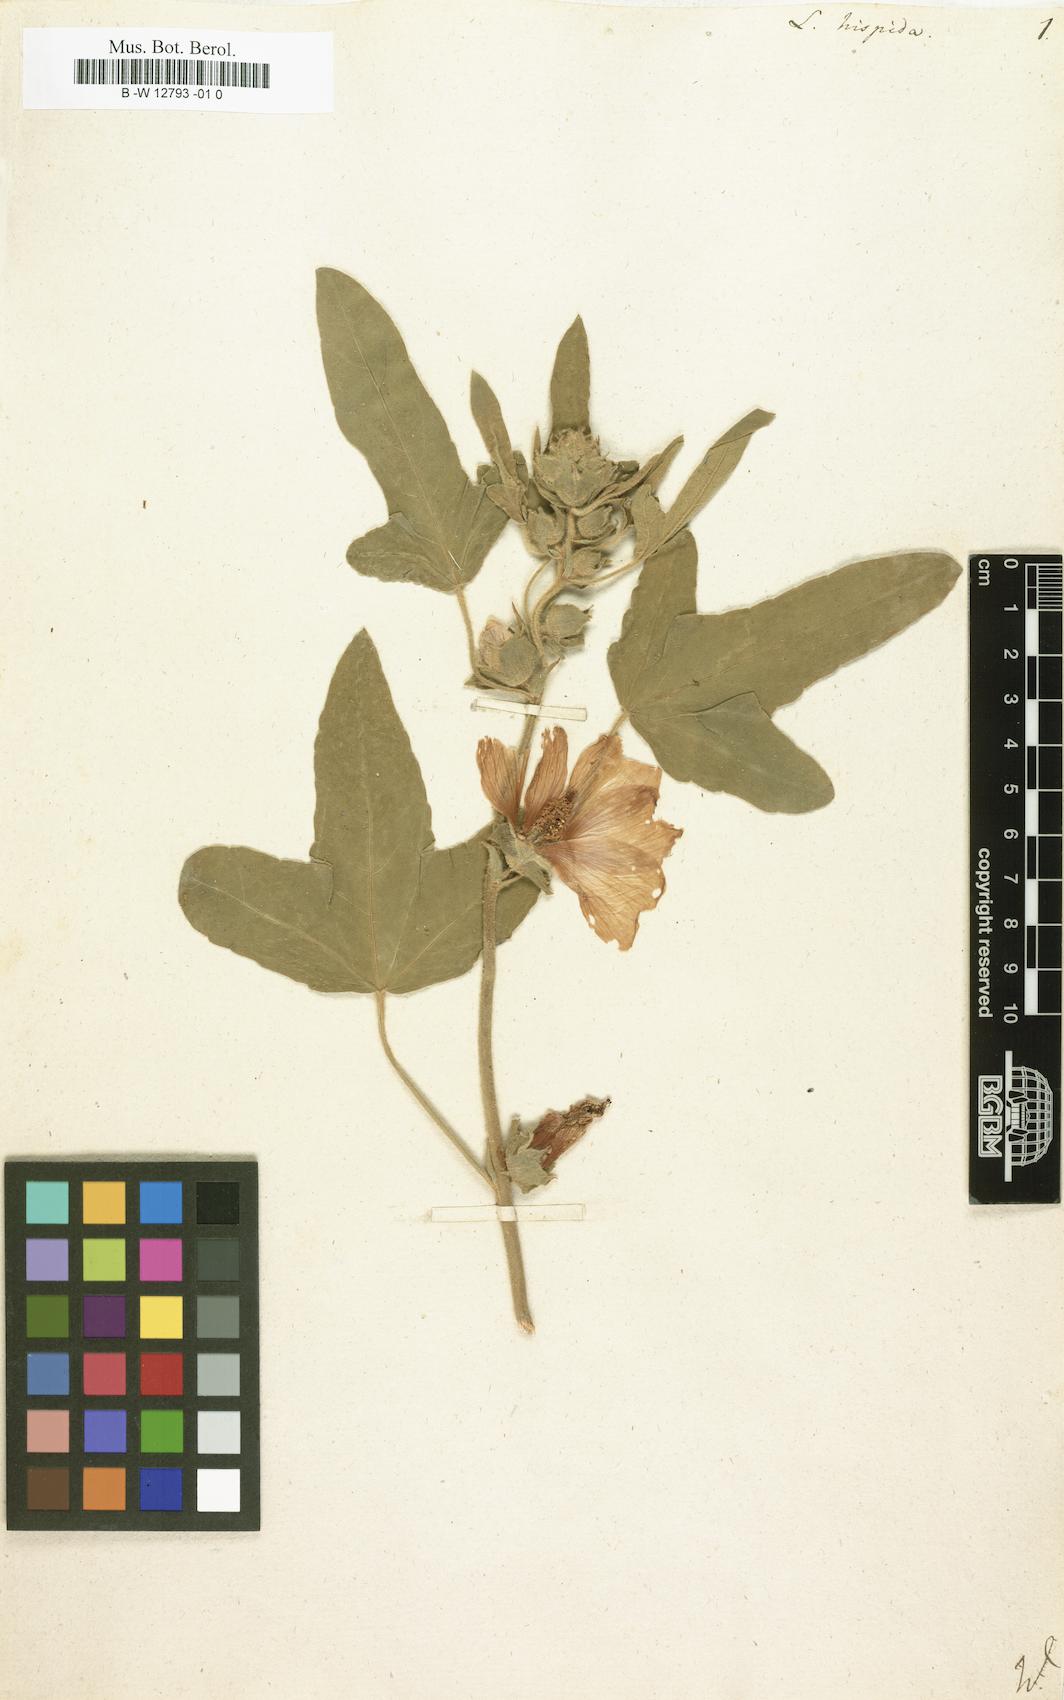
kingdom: Plantae
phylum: Tracheophyta
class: Magnoliopsida
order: Malvales
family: Malvaceae
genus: Malva
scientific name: Malva
